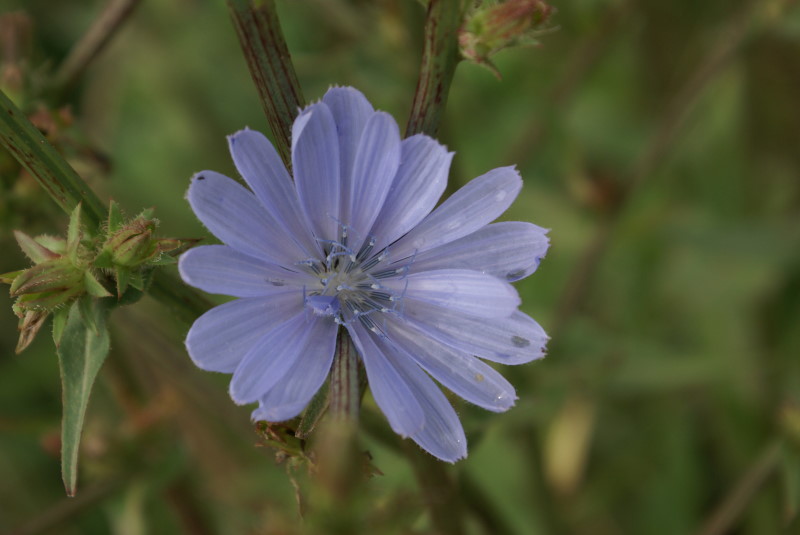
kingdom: Plantae
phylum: Tracheophyta
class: Magnoliopsida
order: Asterales
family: Asteraceae
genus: Cichorium
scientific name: Cichorium intybus
